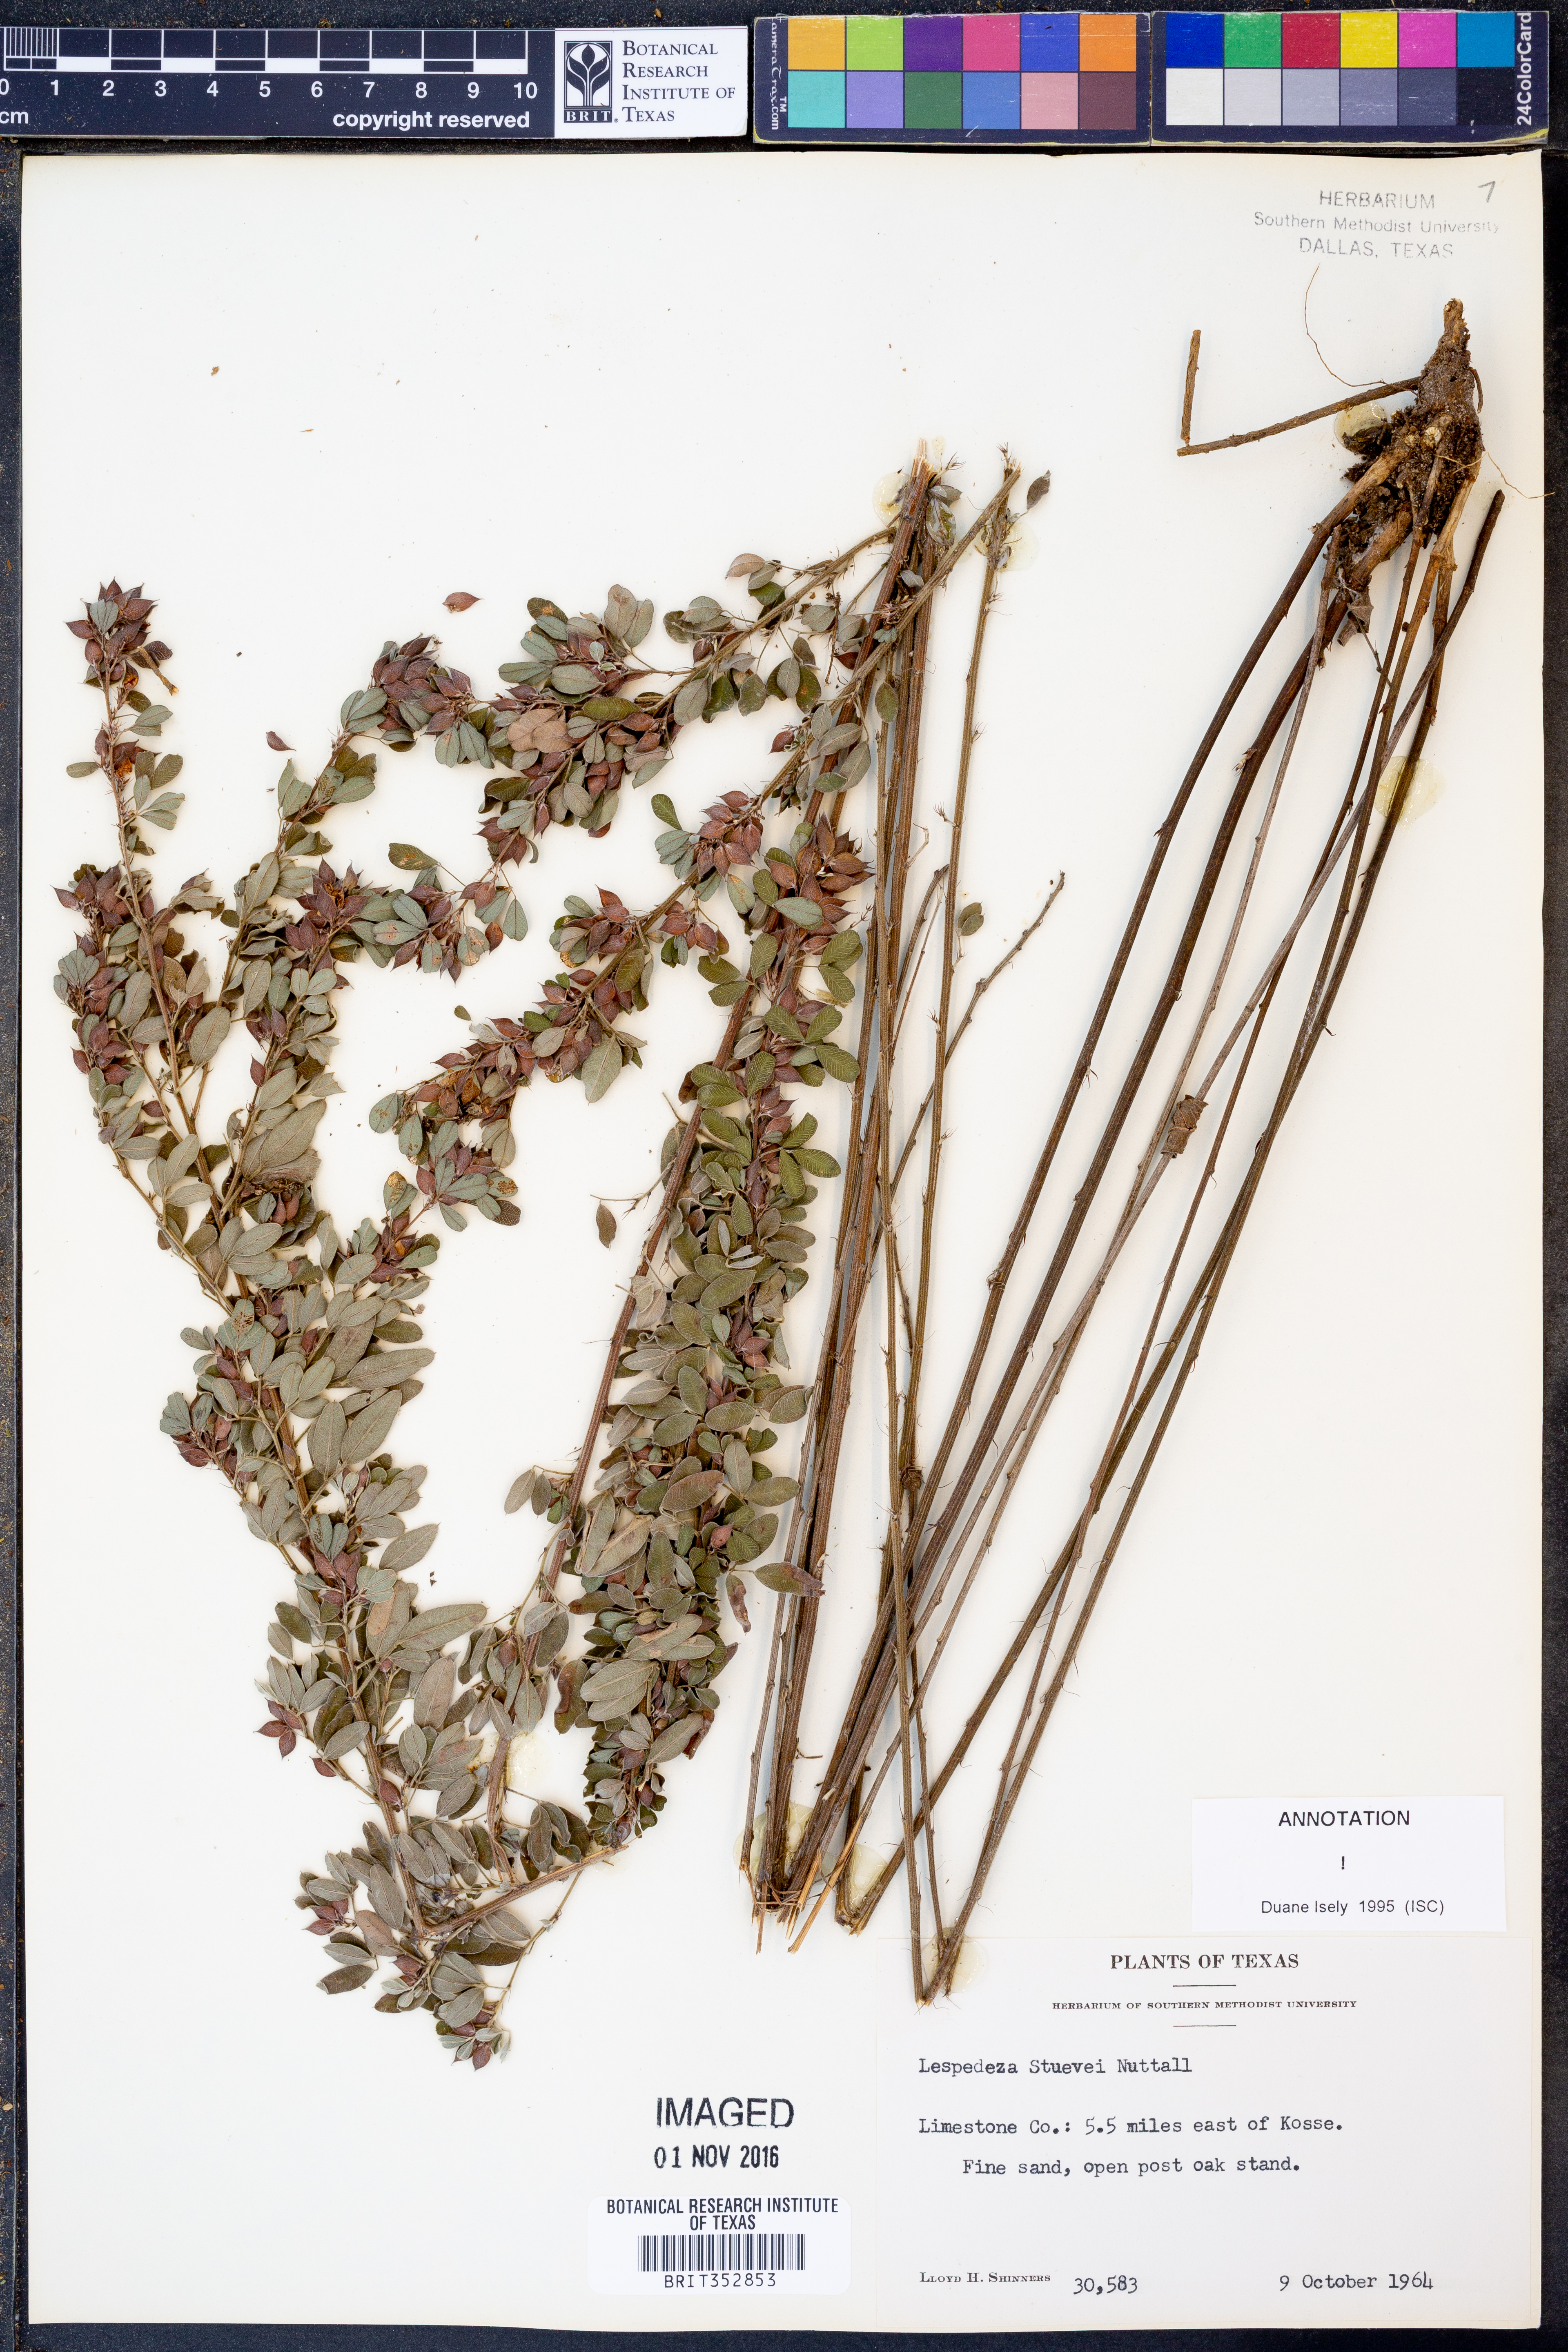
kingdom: Plantae
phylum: Tracheophyta
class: Magnoliopsida
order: Fabales
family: Fabaceae
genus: Lespedeza
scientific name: Lespedeza stuevei
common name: Tall bush-clover
